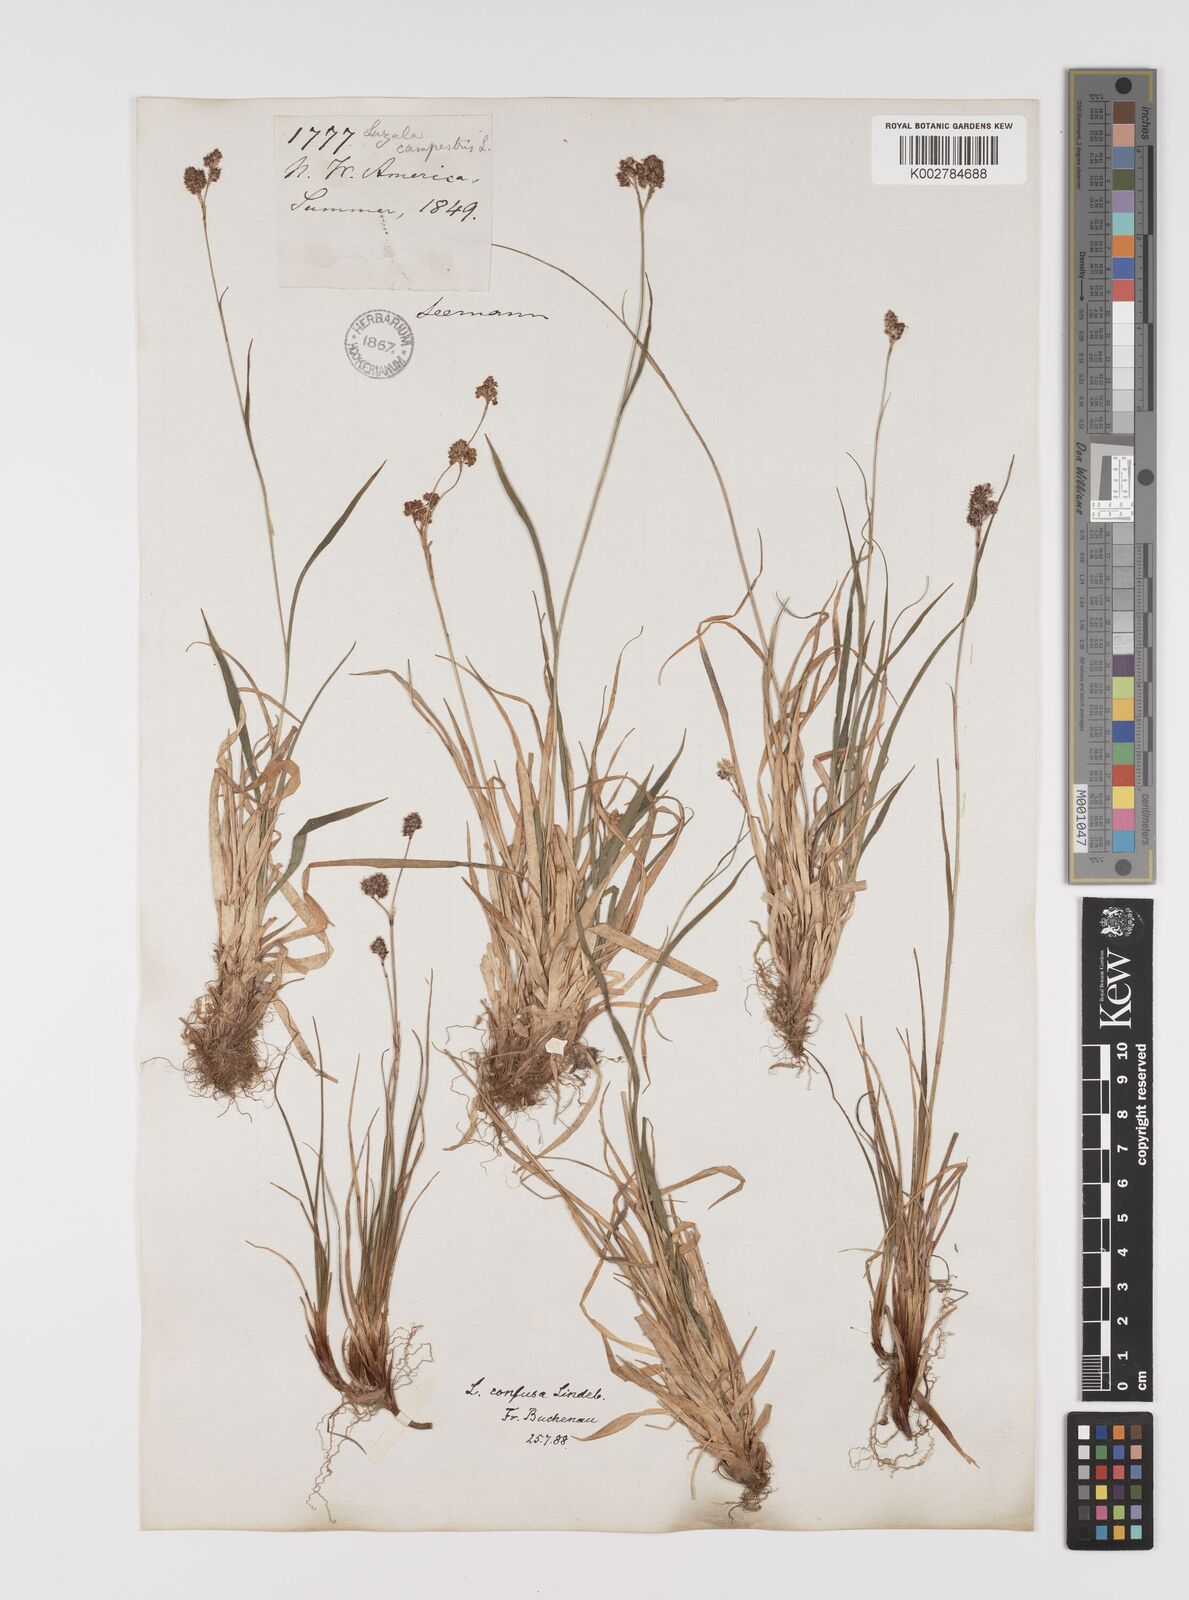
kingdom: Plantae
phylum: Tracheophyta
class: Liliopsida
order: Poales
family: Juncaceae
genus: Luzula
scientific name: Luzula campestris
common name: Field wood-rush
